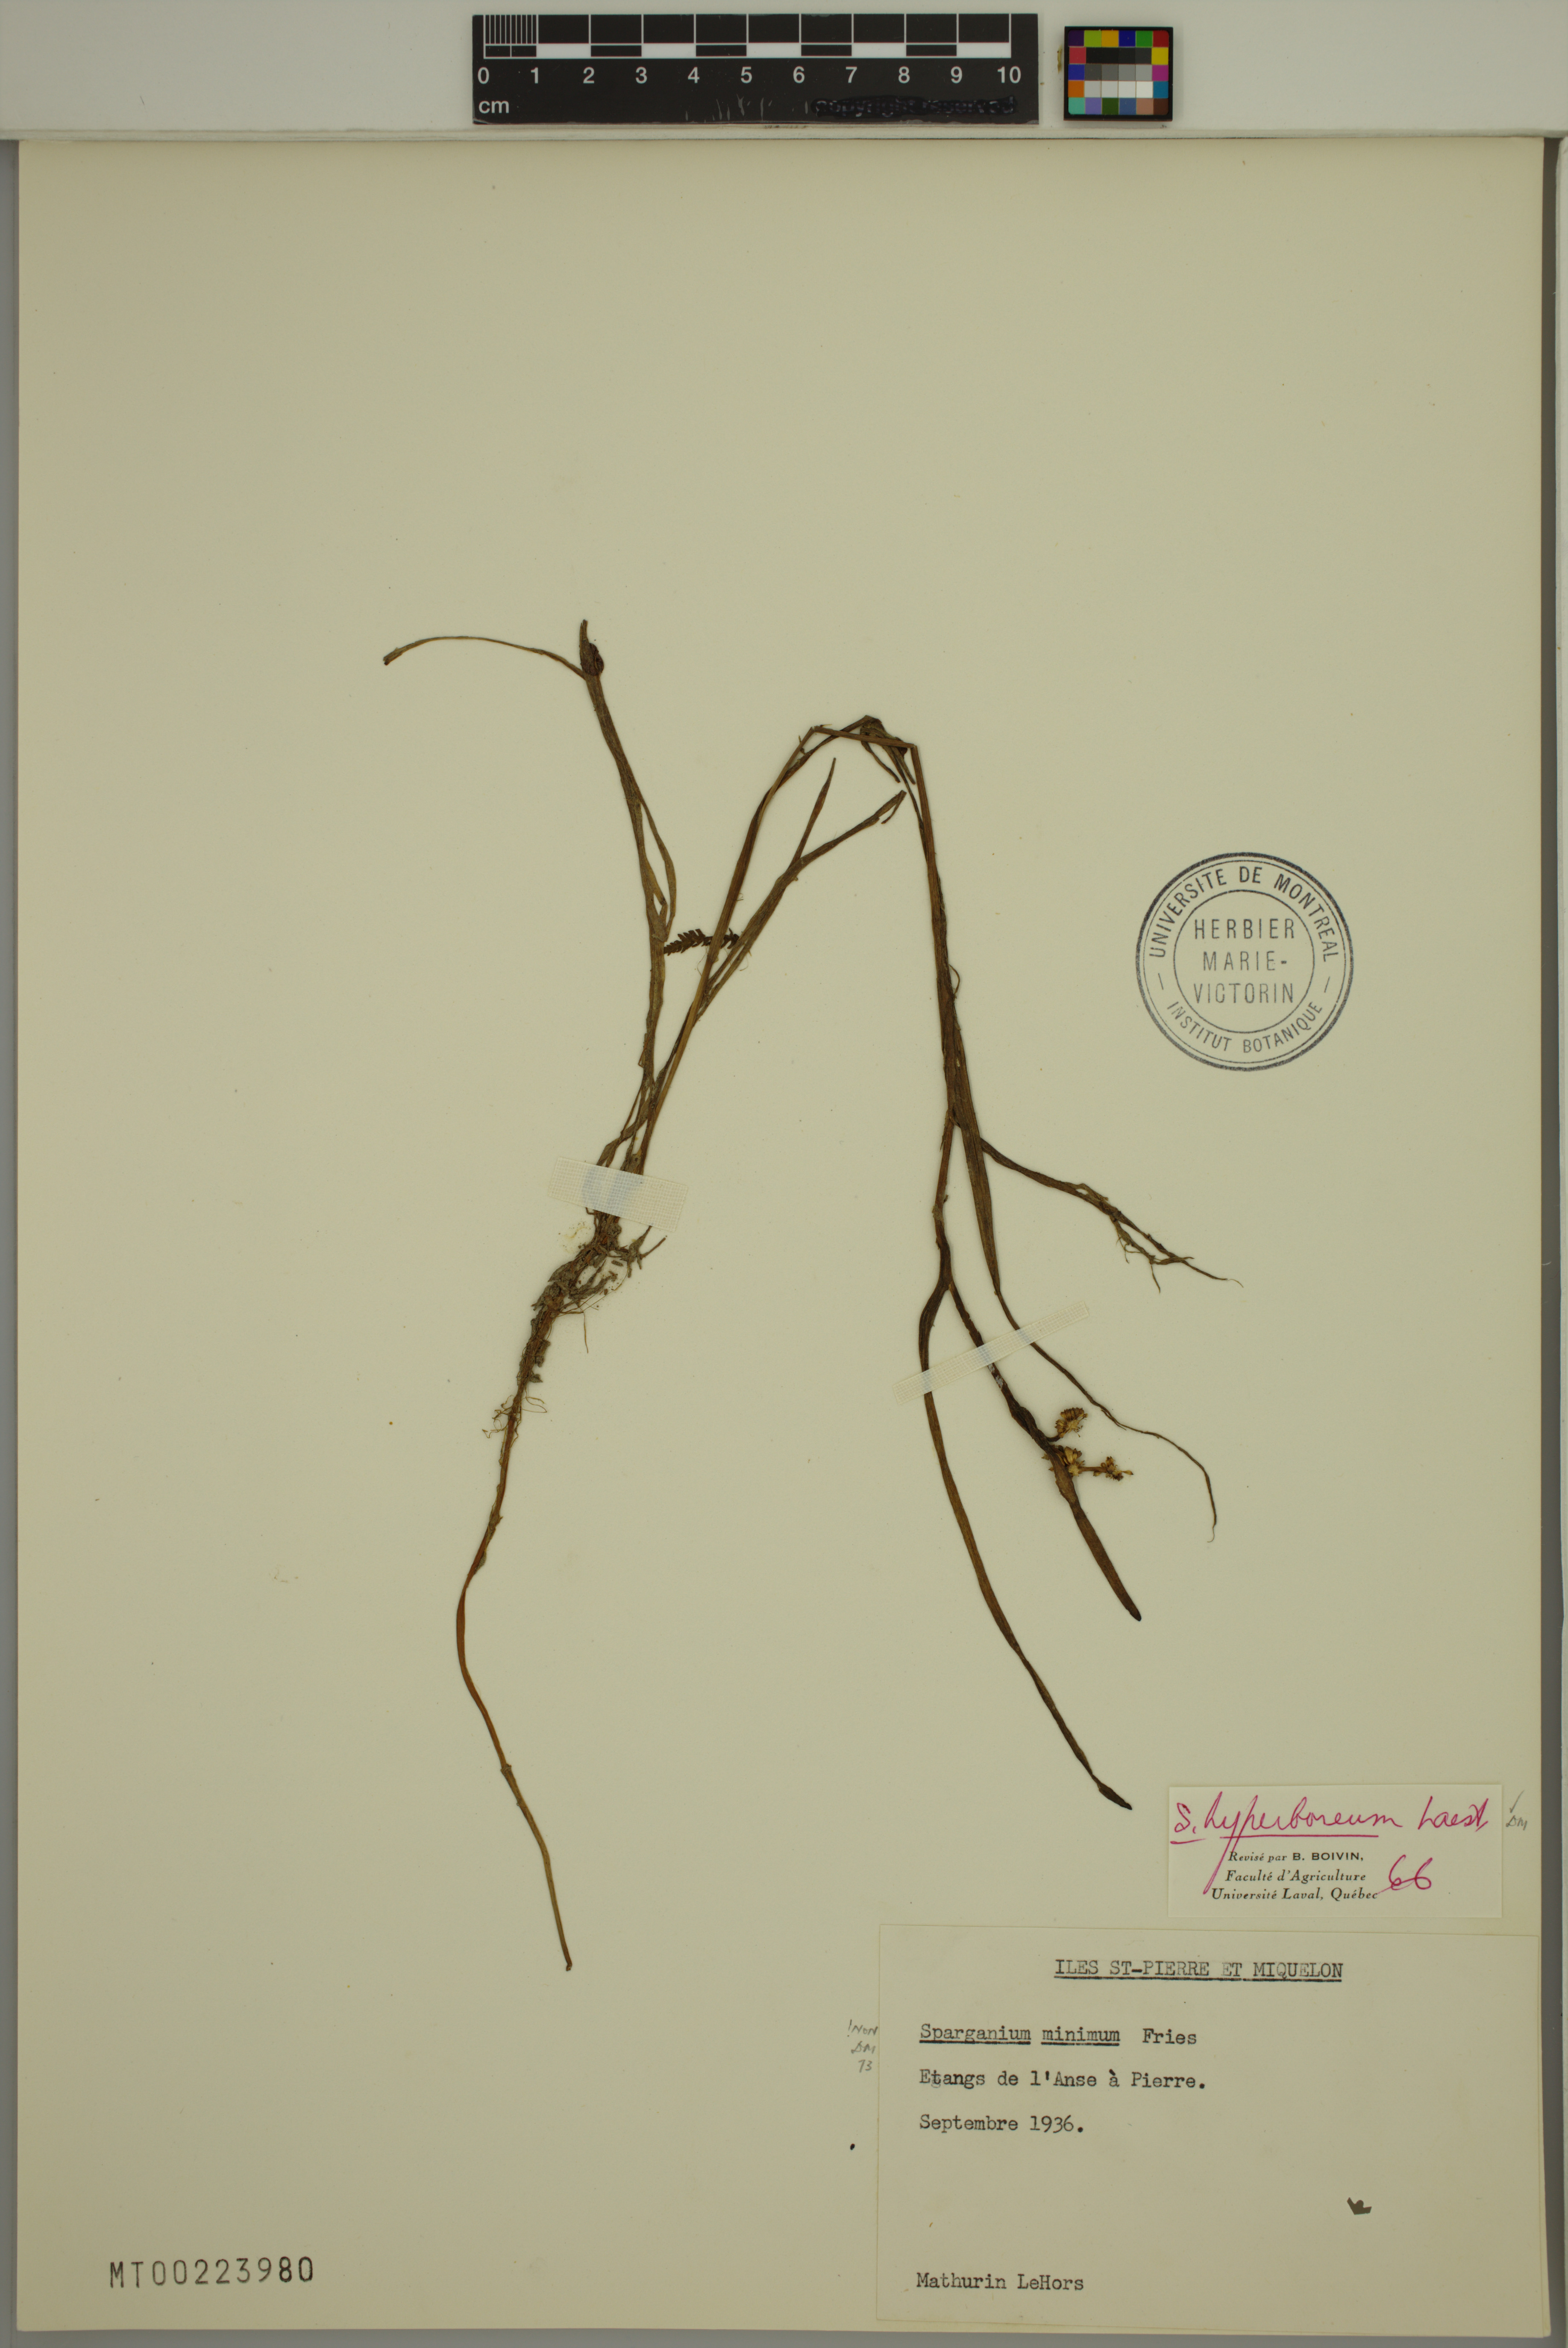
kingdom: Plantae
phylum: Tracheophyta
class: Liliopsida
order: Poales
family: Typhaceae
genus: Sparganium
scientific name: Sparganium hyperboreum
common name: Arctic burreed
